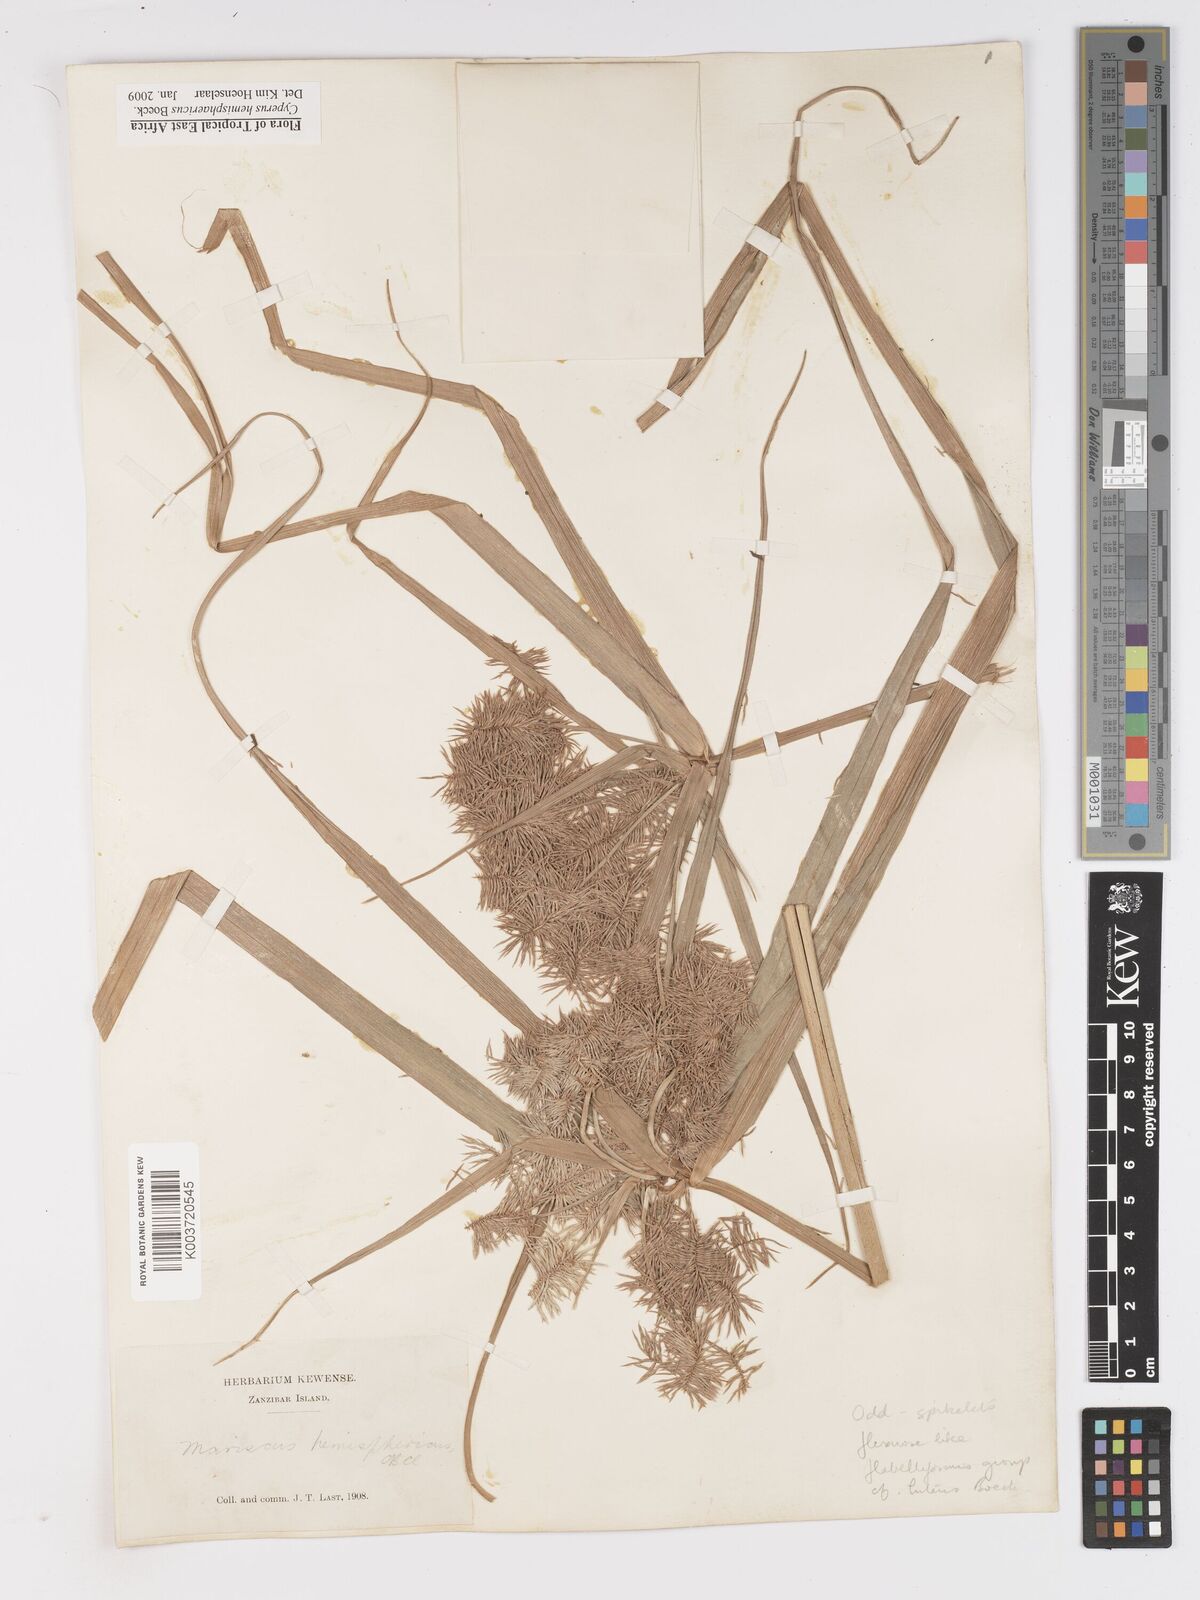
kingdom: Plantae
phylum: Tracheophyta
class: Liliopsida
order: Poales
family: Cyperaceae
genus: Cyperus
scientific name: Cyperus hemisphaericus
